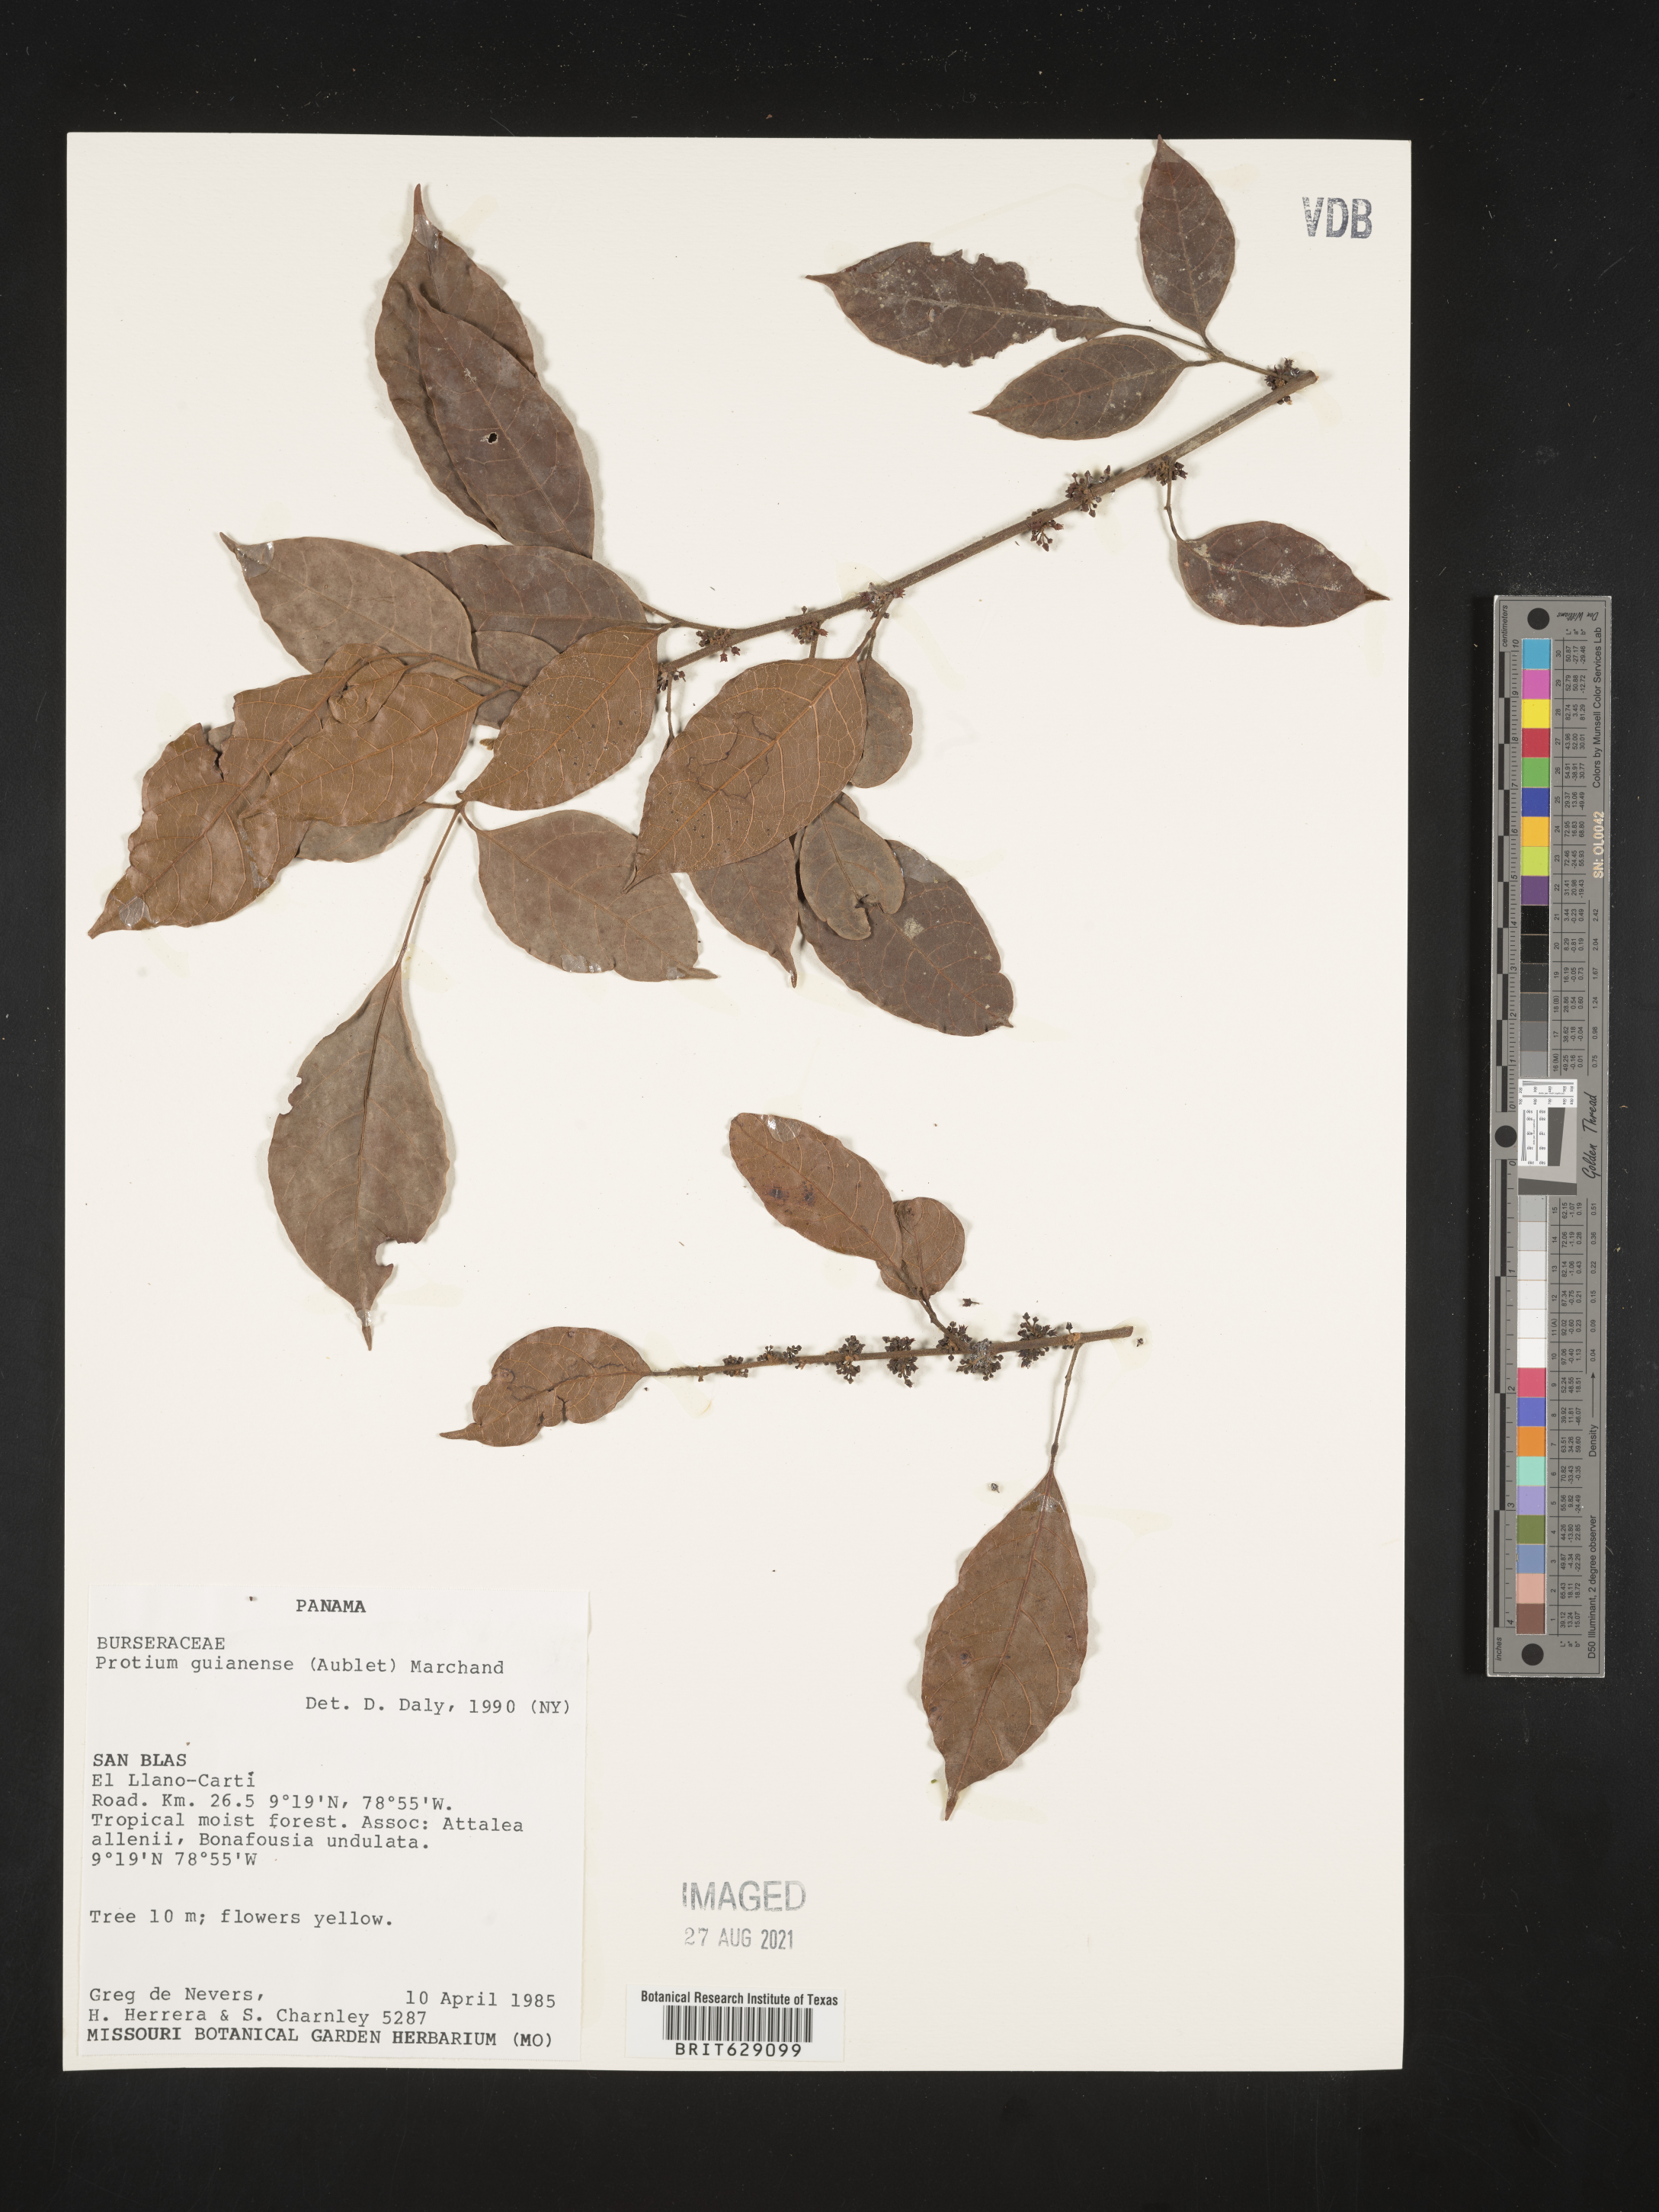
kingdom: Plantae
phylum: Tracheophyta
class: Magnoliopsida
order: Sapindales
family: Burseraceae
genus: Protium
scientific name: Protium guianense
